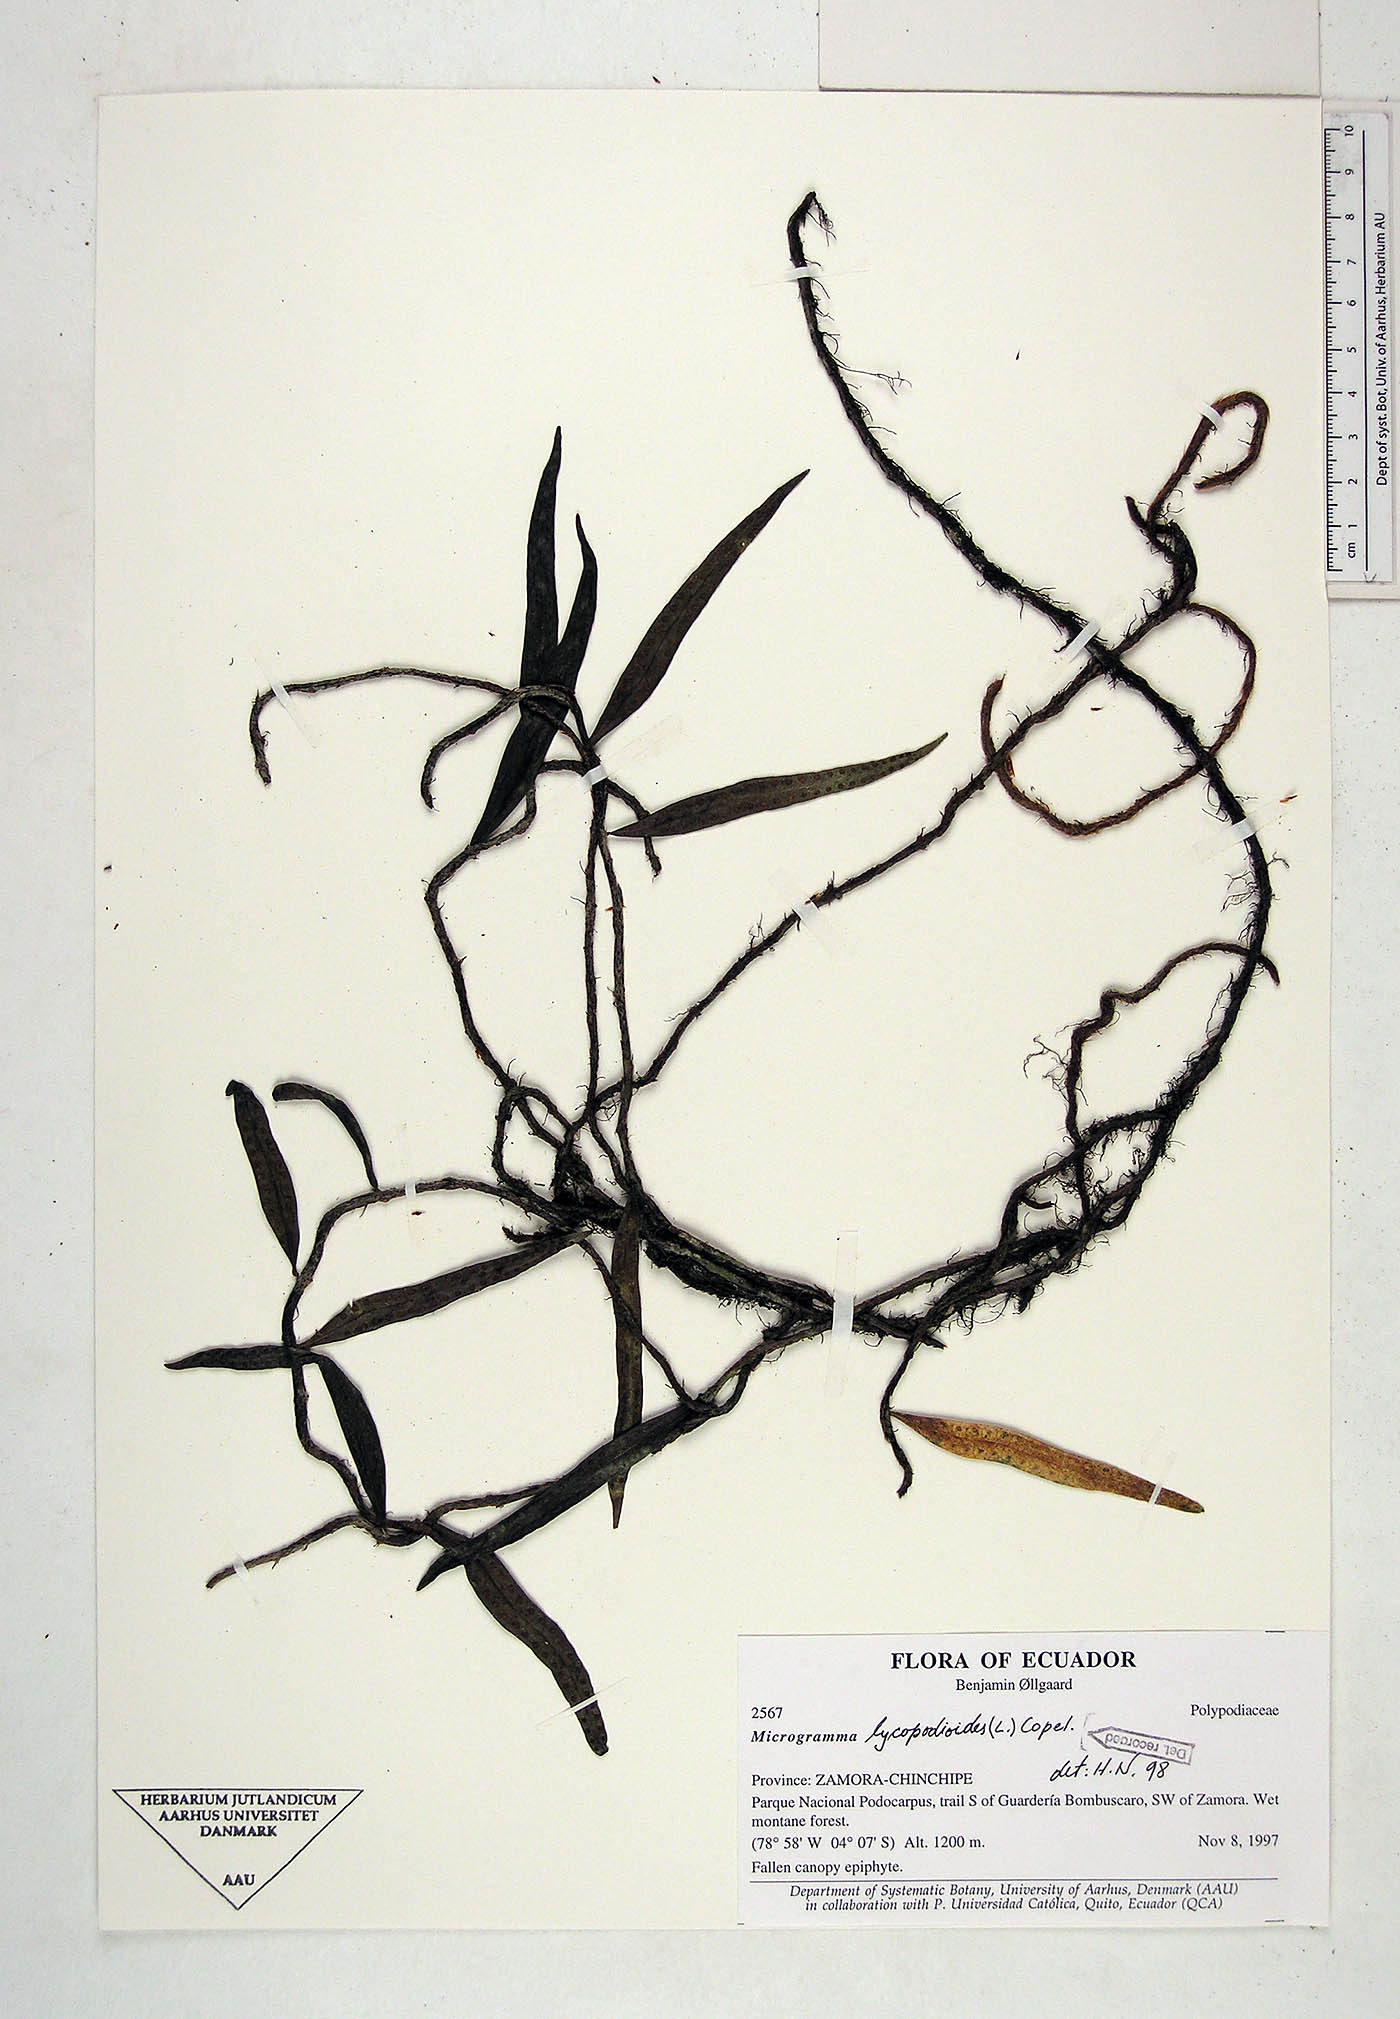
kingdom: Plantae
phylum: Tracheophyta
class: Polypodiopsida
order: Polypodiales
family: Polypodiaceae
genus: Microgramma
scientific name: Microgramma lycopodioides
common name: Bastard catclaw
